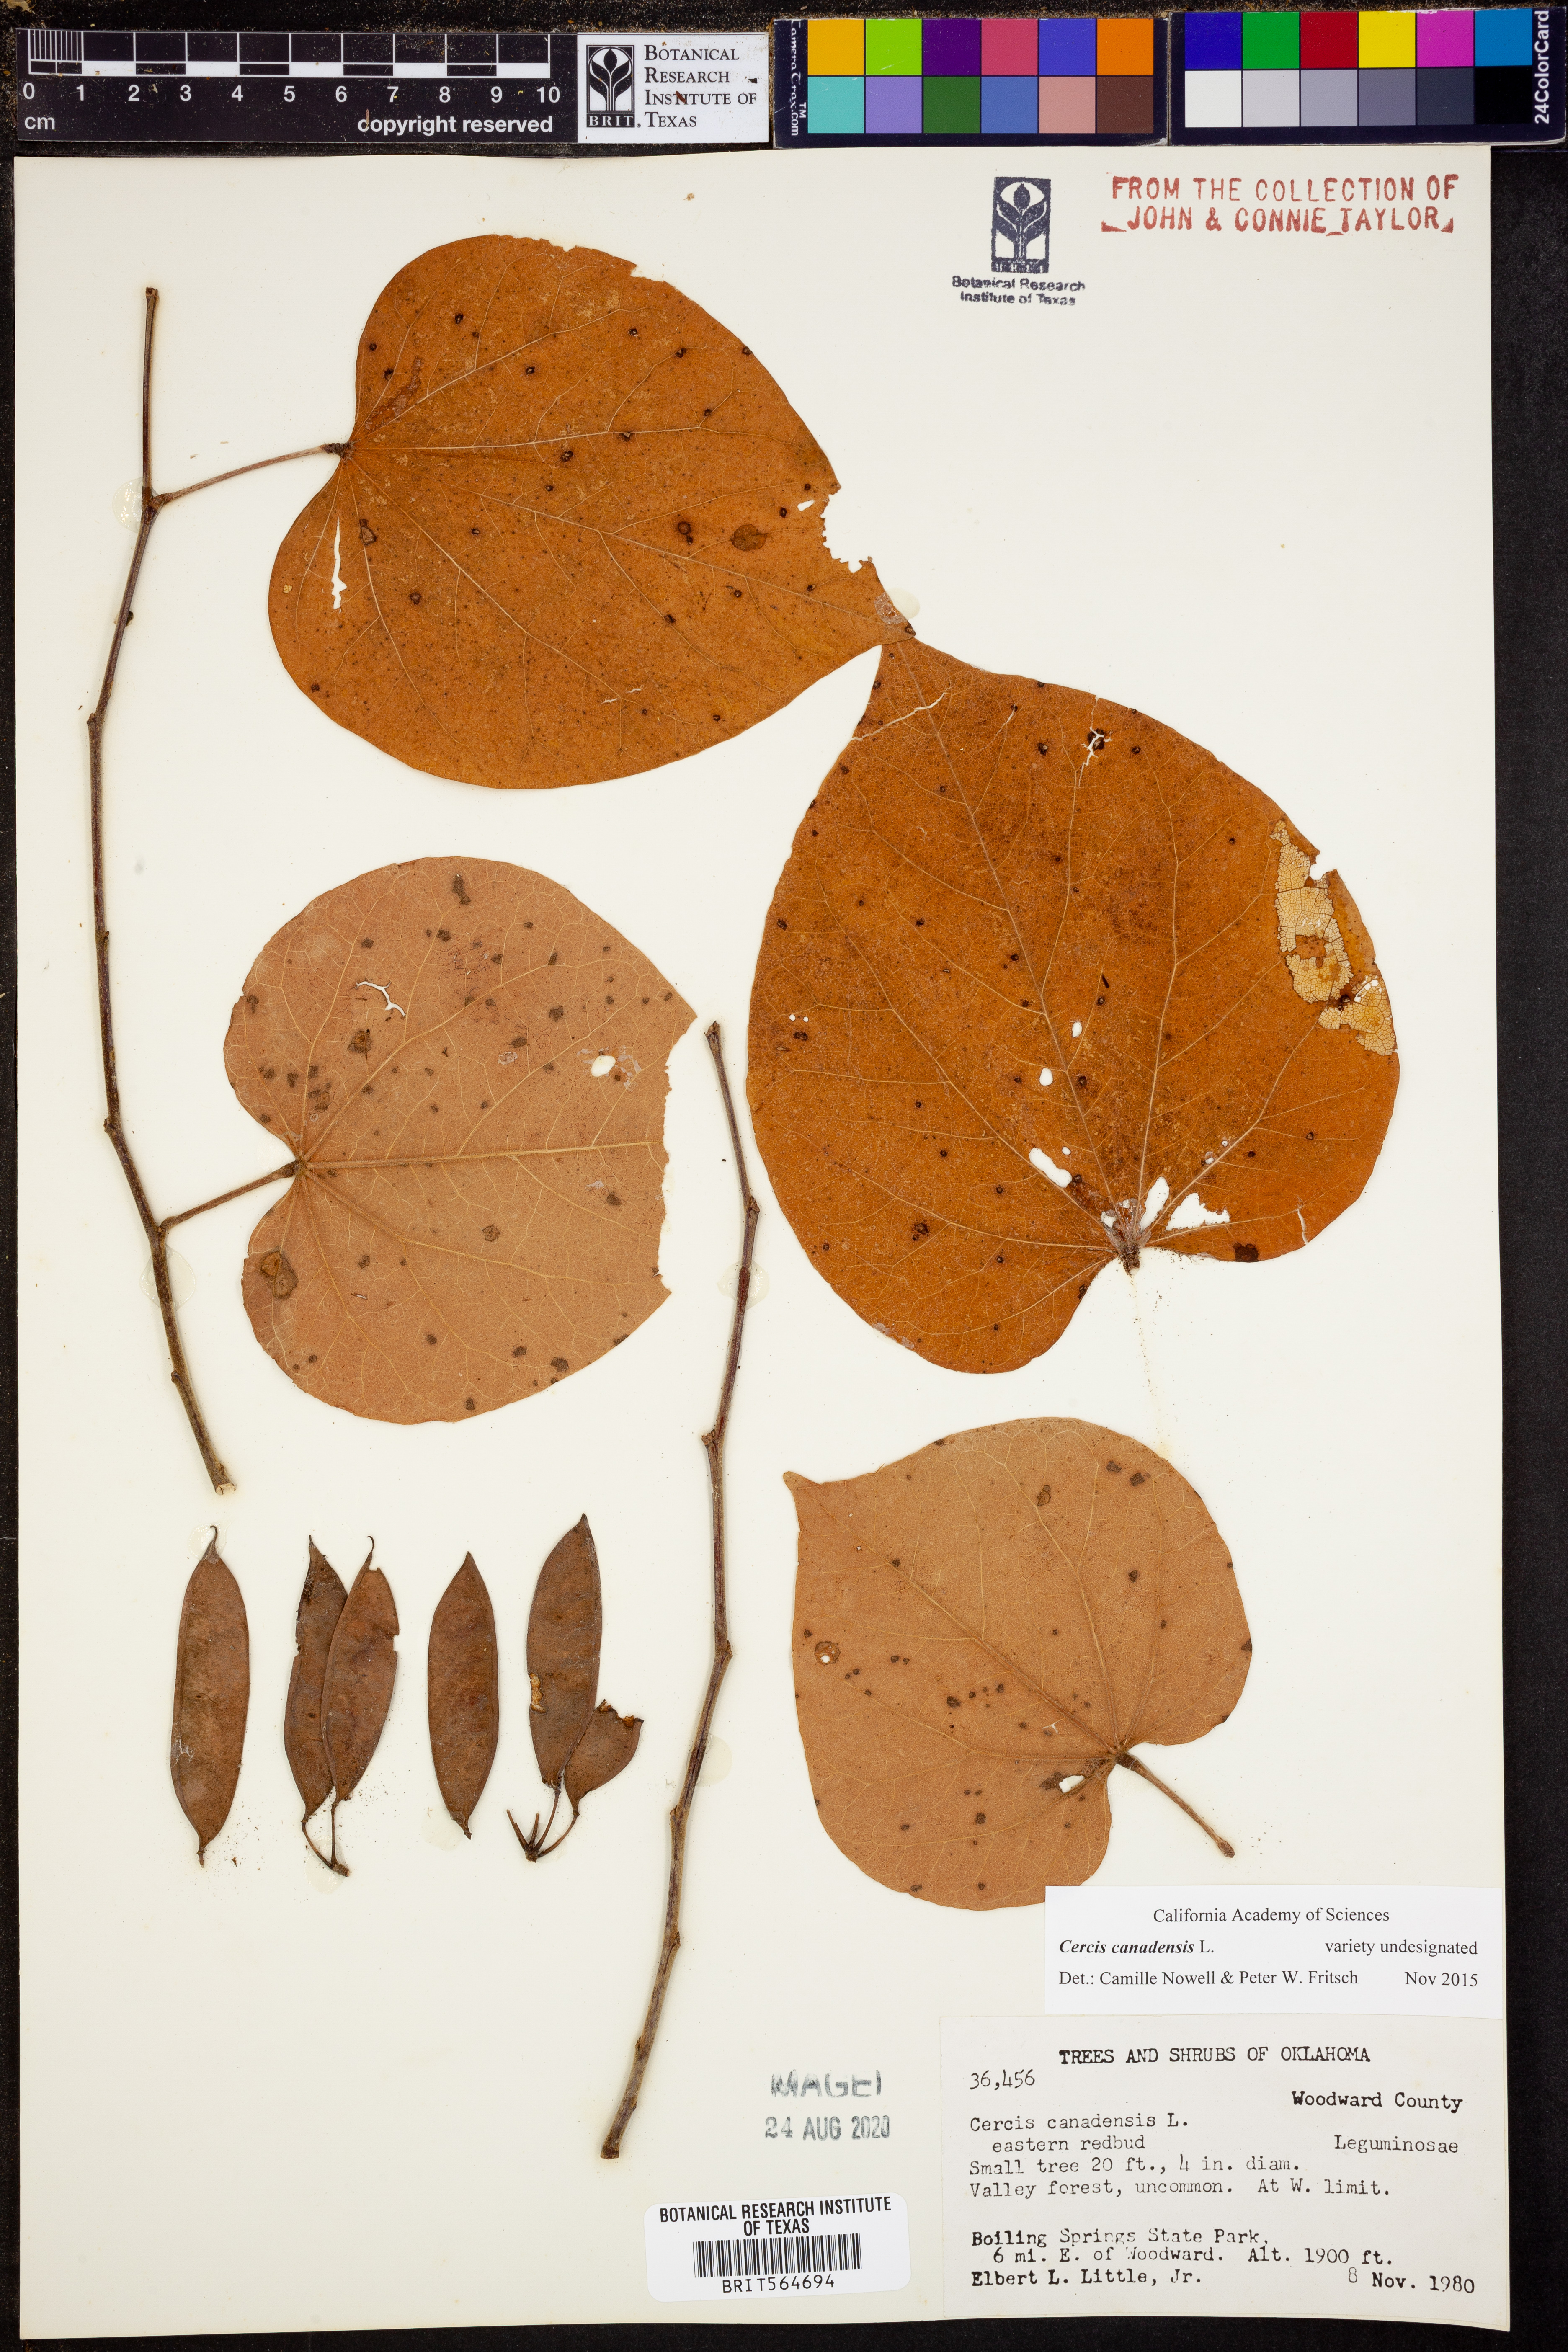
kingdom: Plantae
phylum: Tracheophyta
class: Magnoliopsida
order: Fabales
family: Fabaceae
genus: Cercis
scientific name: Cercis canadensis
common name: Eastern redbud
